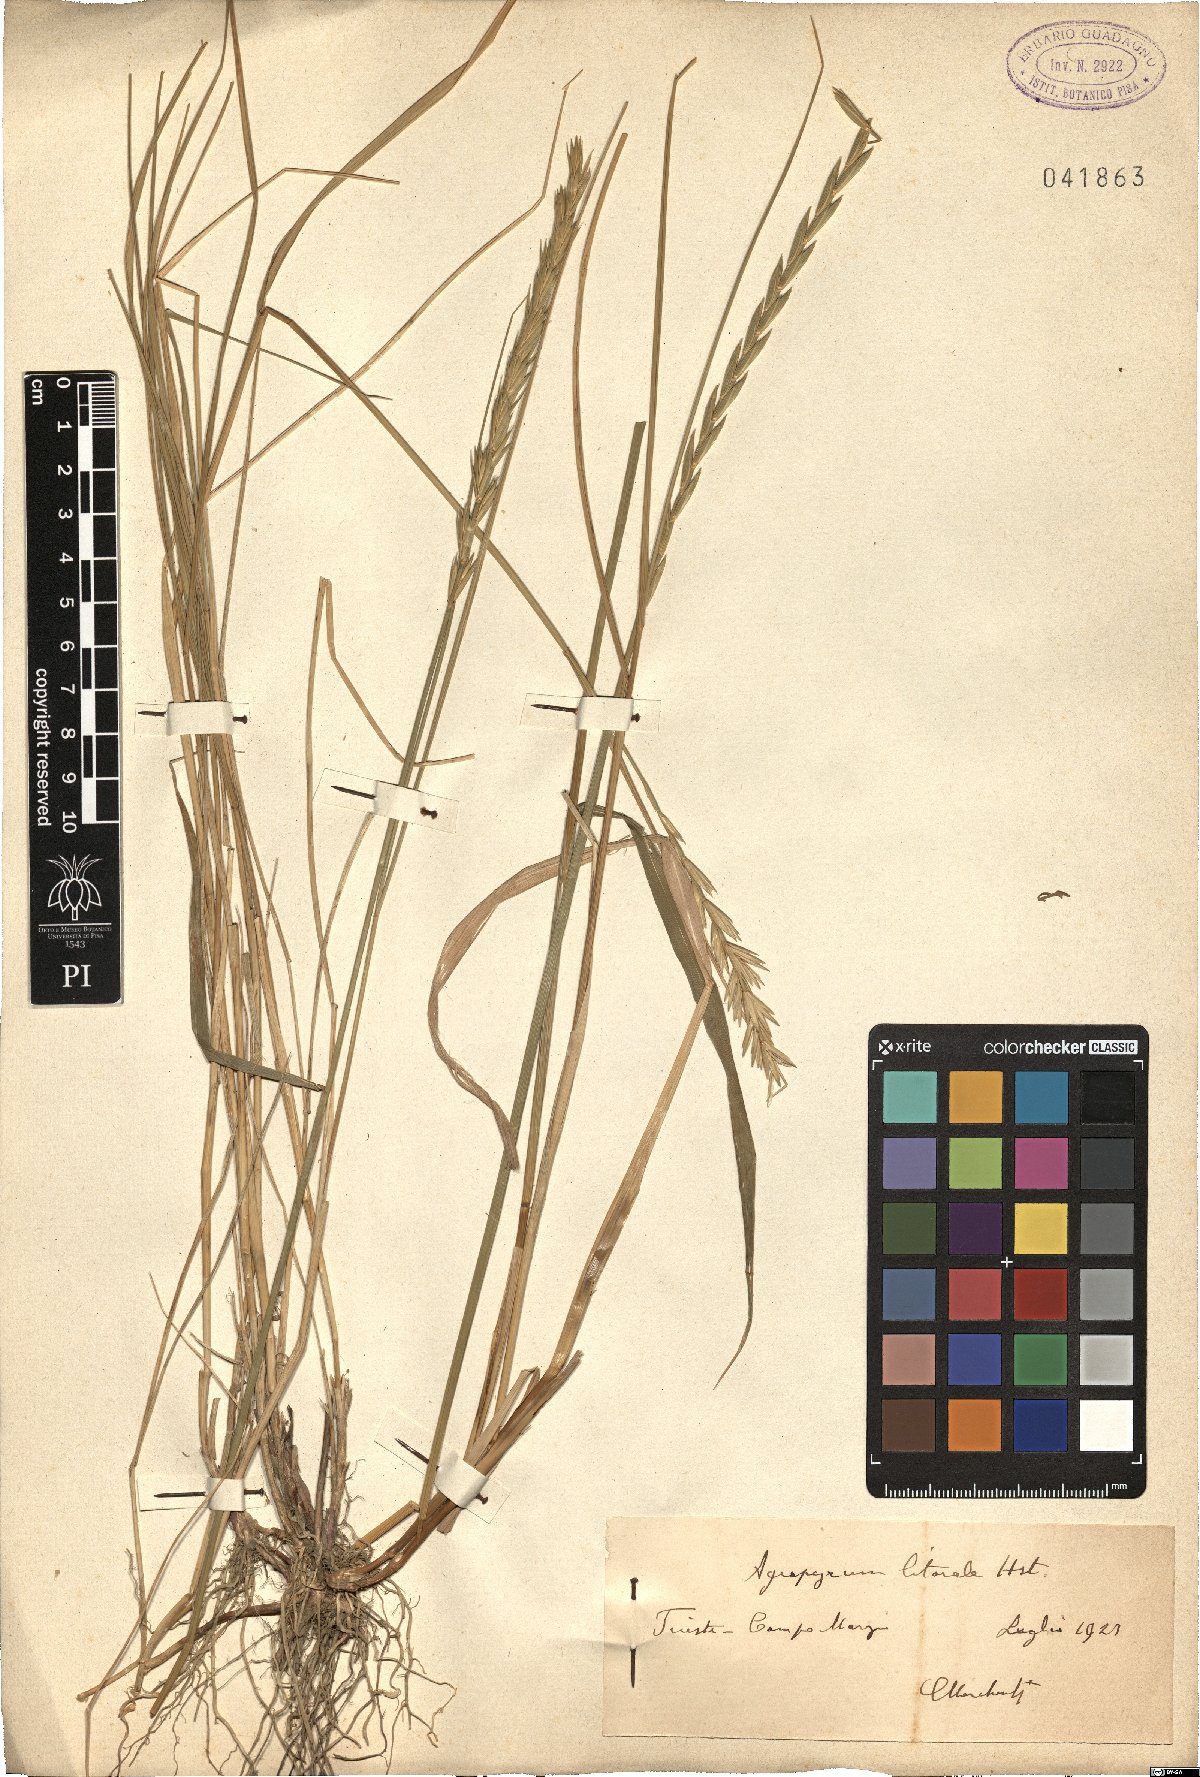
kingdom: Plantae
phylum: Tracheophyta
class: Liliopsida
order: Poales
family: Poaceae
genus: Elymus
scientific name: Elymus athericus
